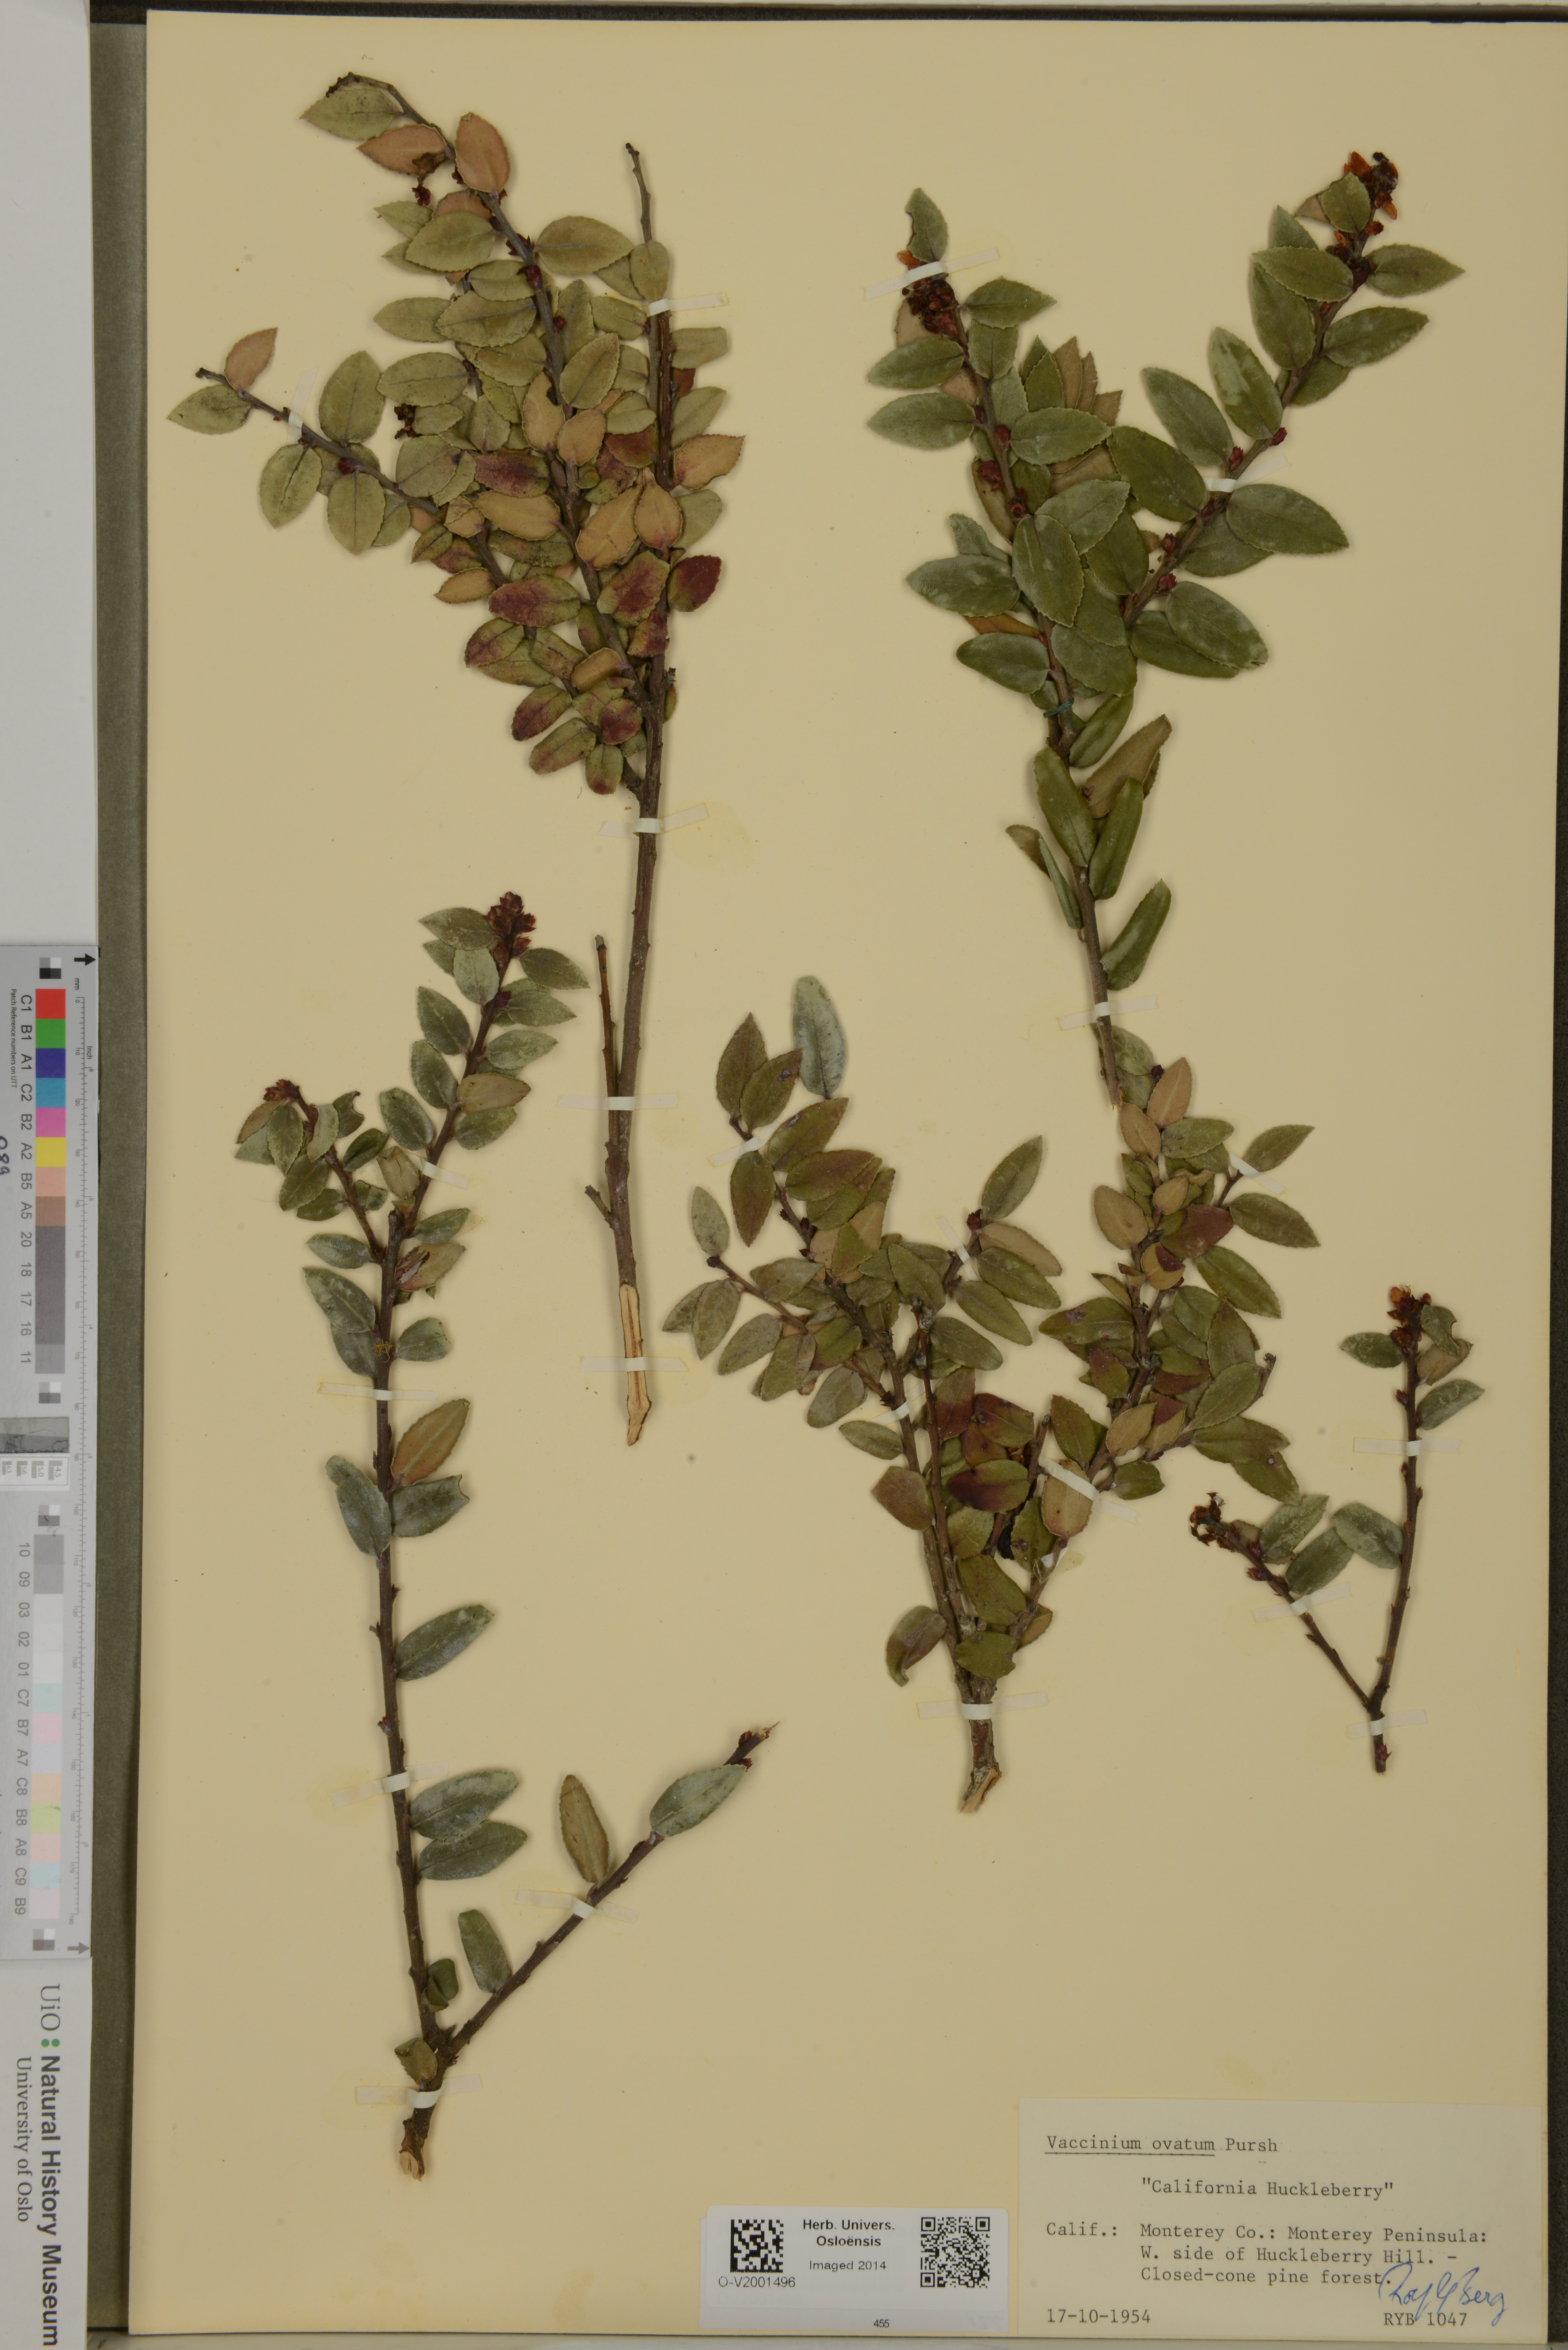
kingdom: Plantae
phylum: Tracheophyta
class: Magnoliopsida
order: Ericales
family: Ericaceae
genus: Vaccinium
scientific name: Vaccinium ovatum
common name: California-huckleberry
